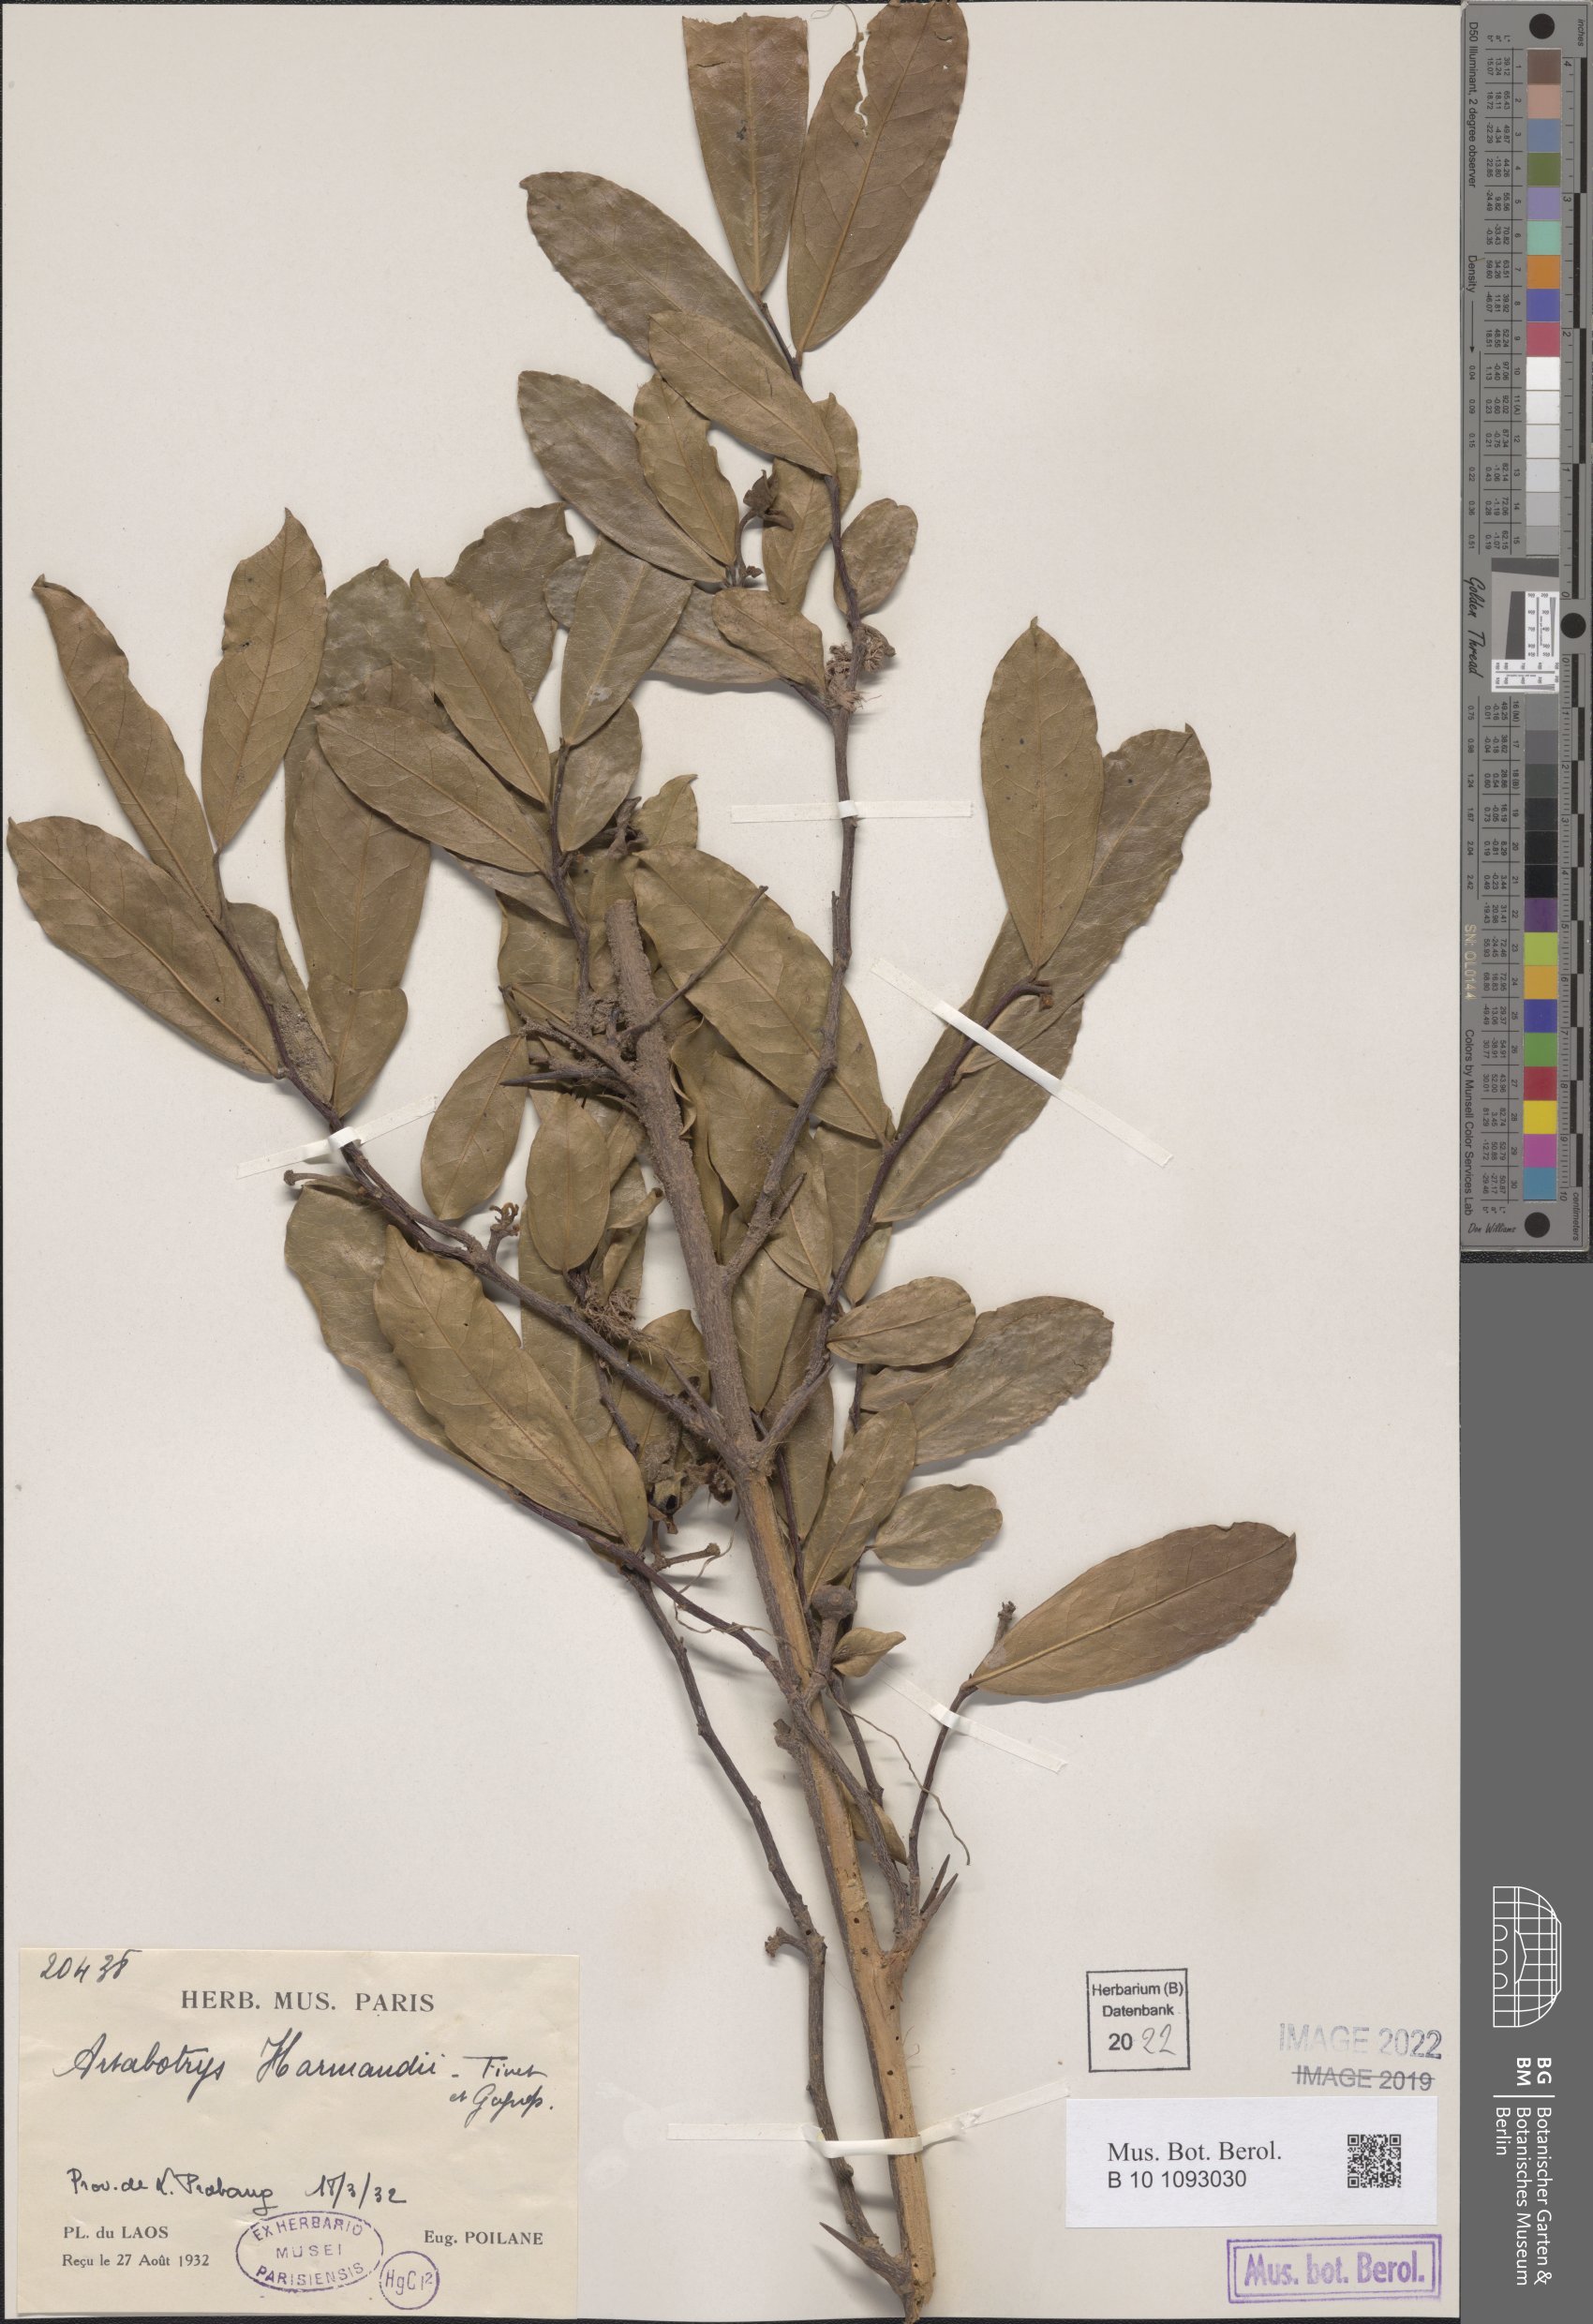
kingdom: Plantae
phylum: Tracheophyta
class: Magnoliopsida
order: Magnoliales
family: Annonaceae
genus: Artabotrys
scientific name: Artabotrys harmandii
